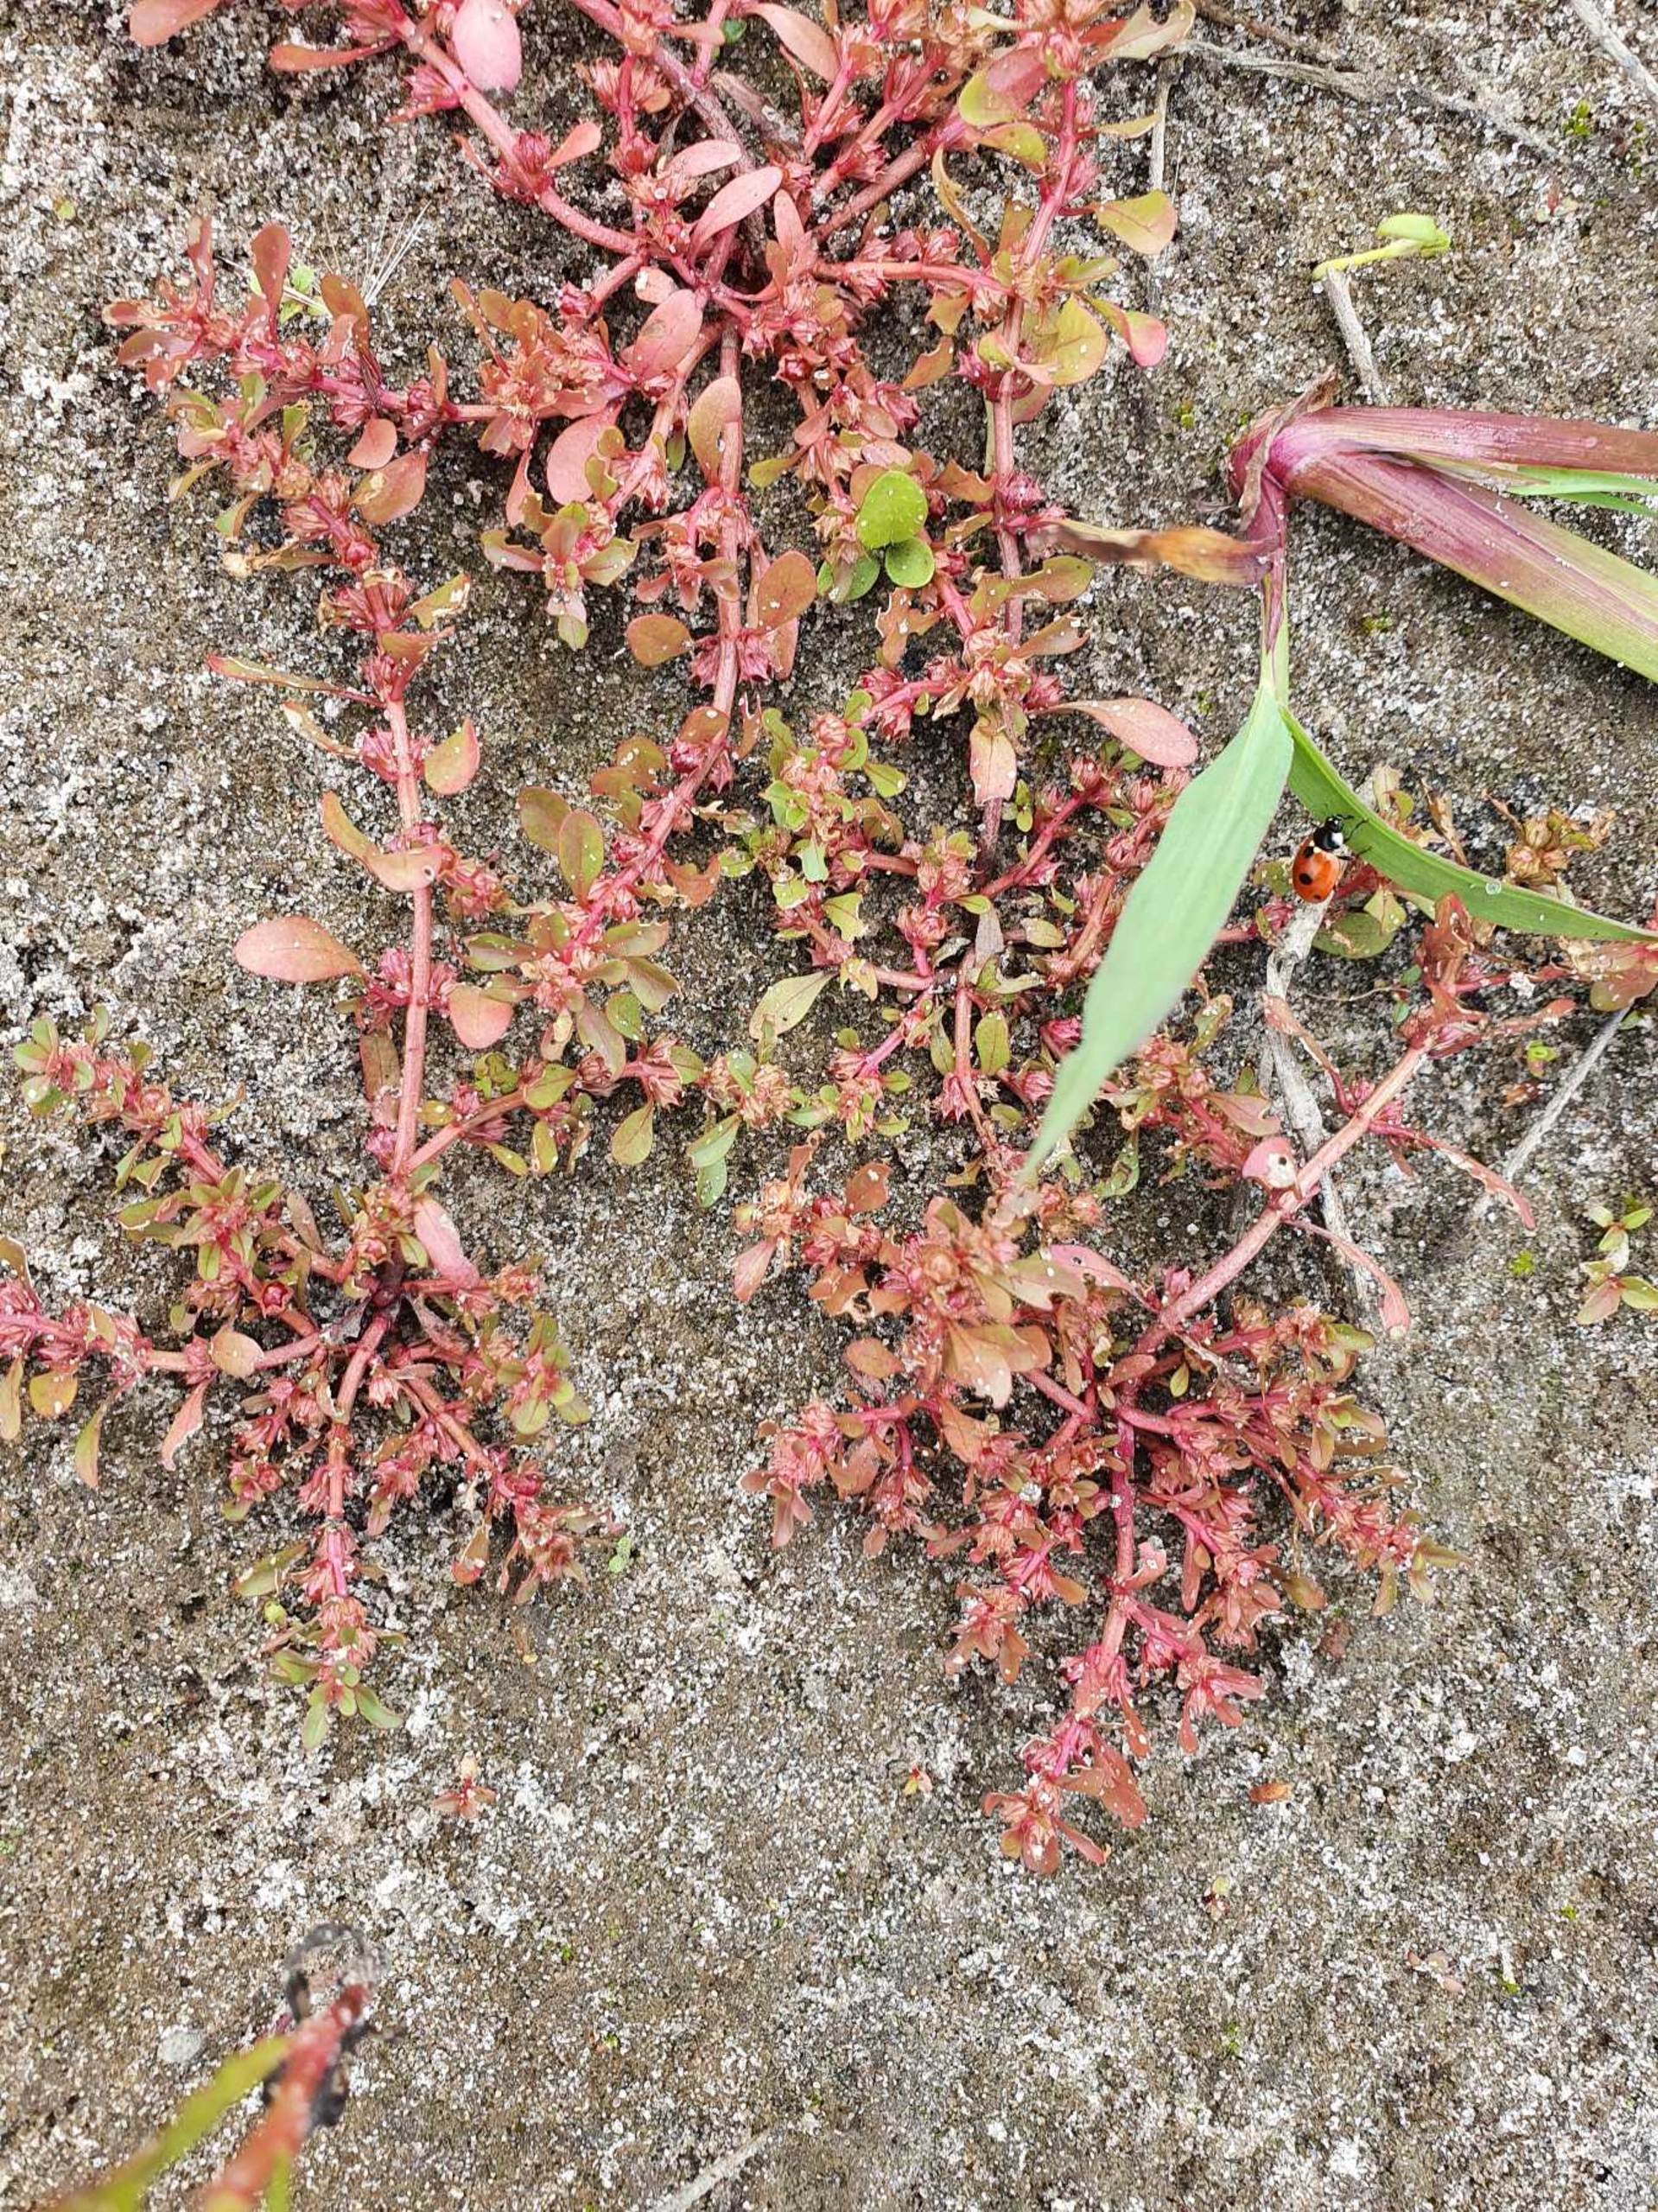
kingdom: Plantae
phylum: Tracheophyta
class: Magnoliopsida
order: Caryophyllales
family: Caryophyllaceae
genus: Illecebrum
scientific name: Illecebrum verticillatum
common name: Bruskbæger
